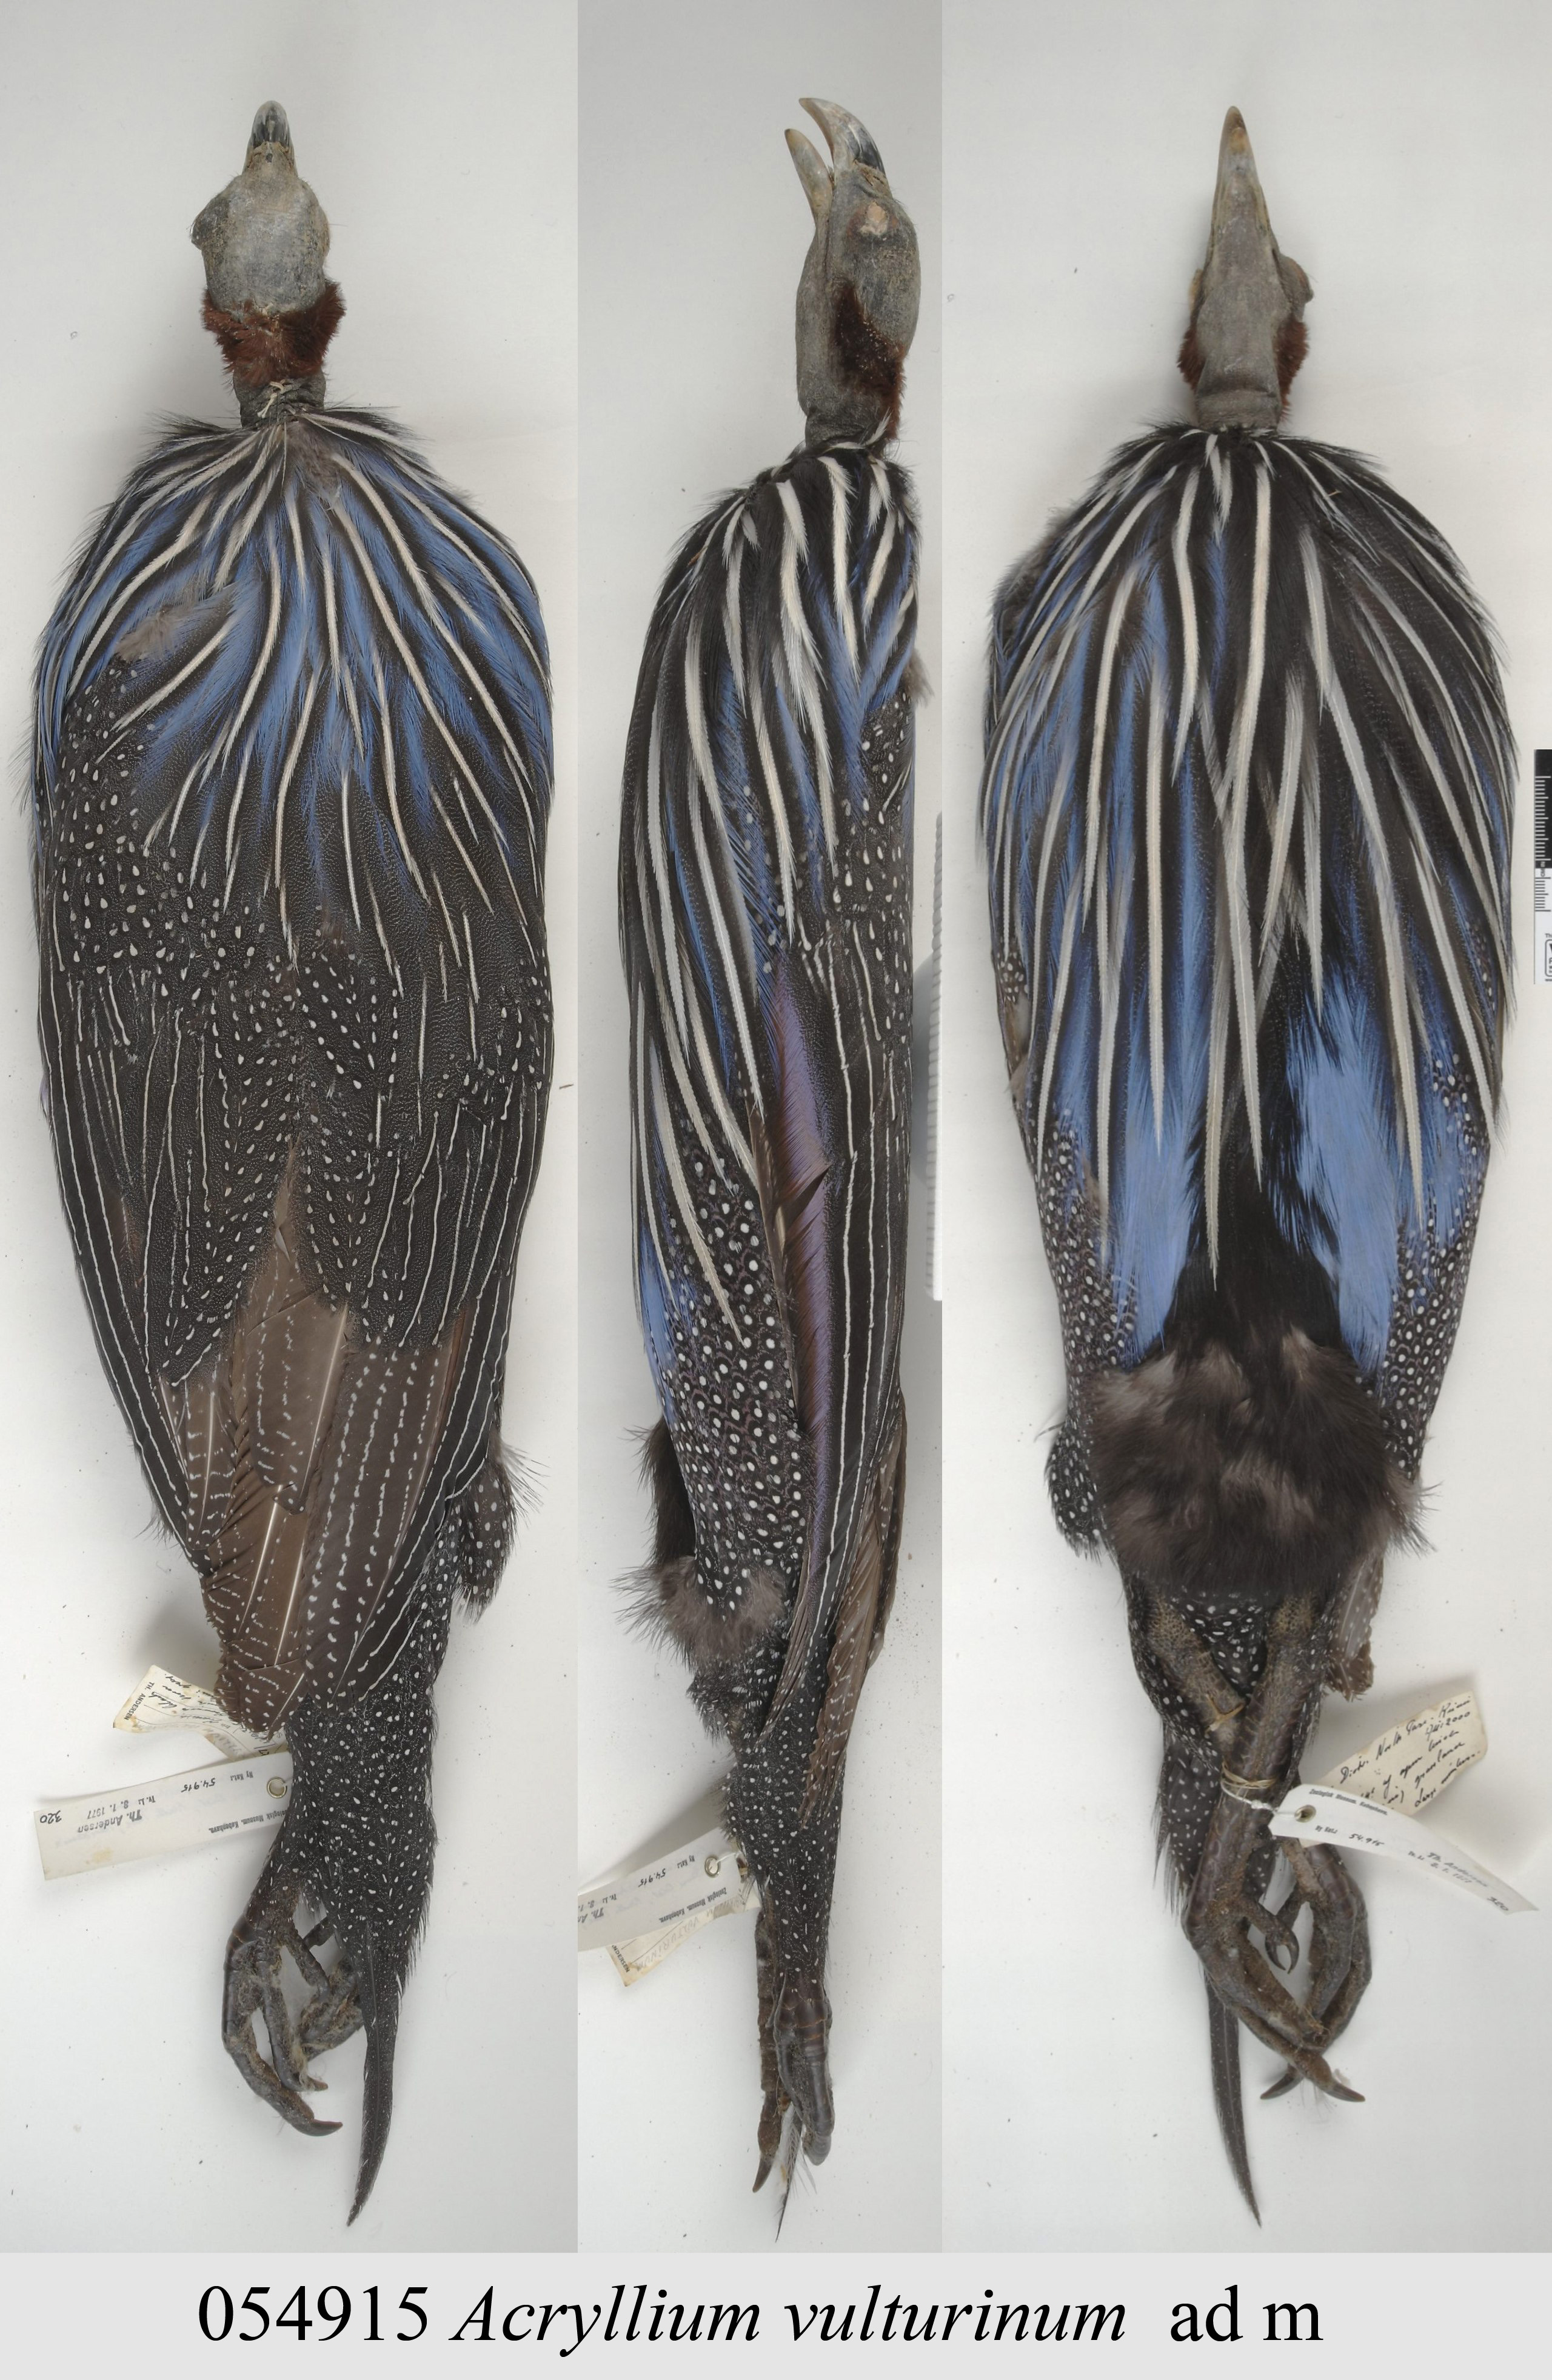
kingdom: Animalia
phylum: Chordata
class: Aves
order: Galliformes
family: Numididae
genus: Acryllium
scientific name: Acryllium vulturinum
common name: Vulturine guineafowl
